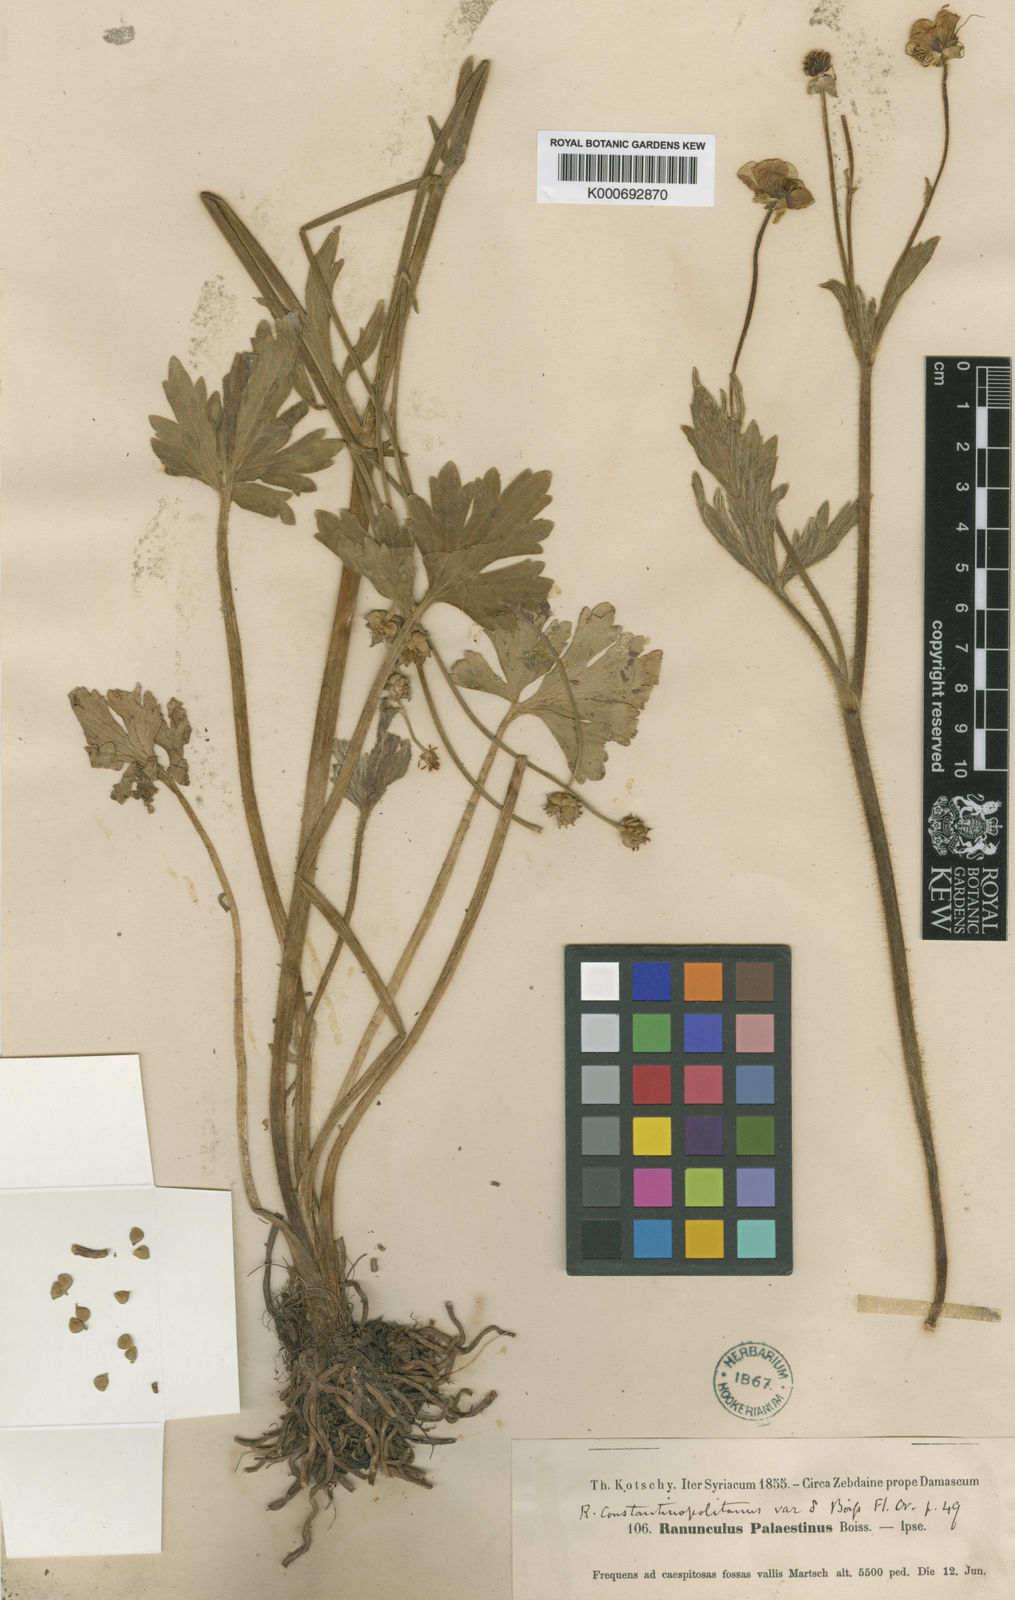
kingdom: Plantae
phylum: Tracheophyta
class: Magnoliopsida
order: Ranunculales
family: Ranunculaceae
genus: Ranunculus
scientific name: Ranunculus constantinopolitanus
